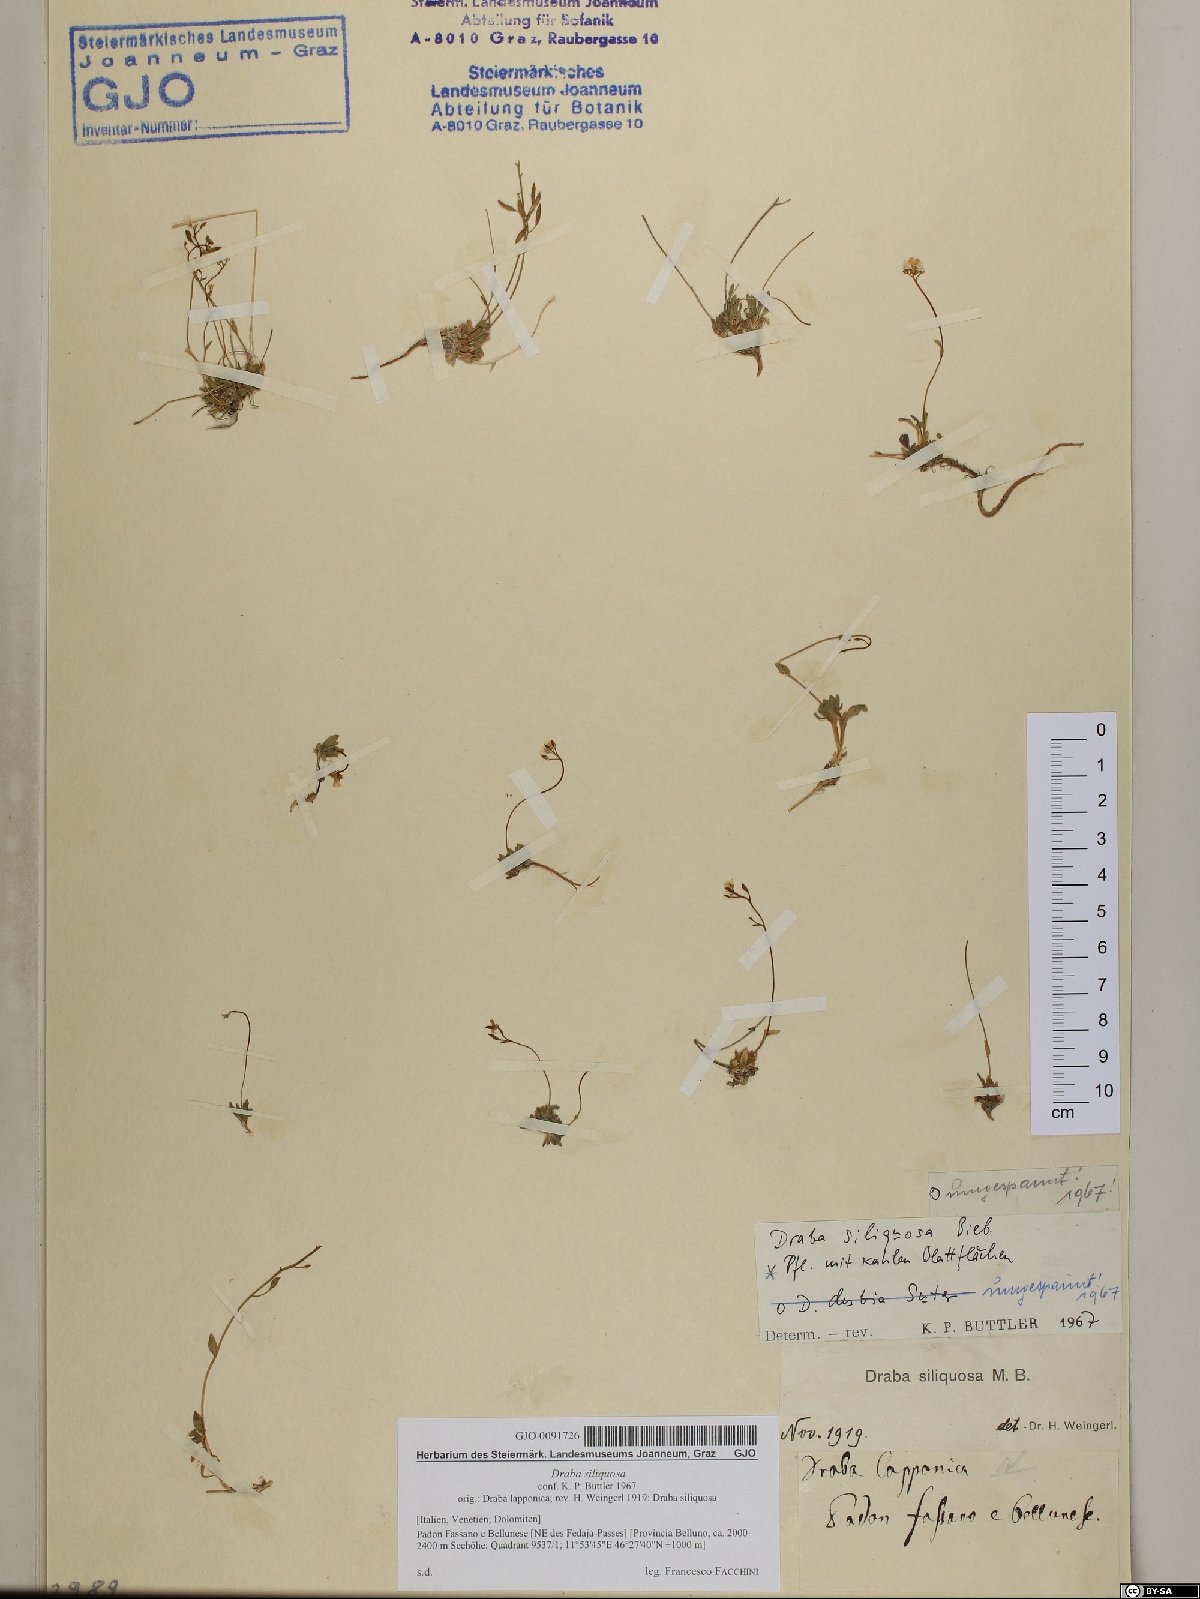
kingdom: Plantae
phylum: Tracheophyta
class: Magnoliopsida
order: Brassicales
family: Brassicaceae
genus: Draba
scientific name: Draba siliquosa
